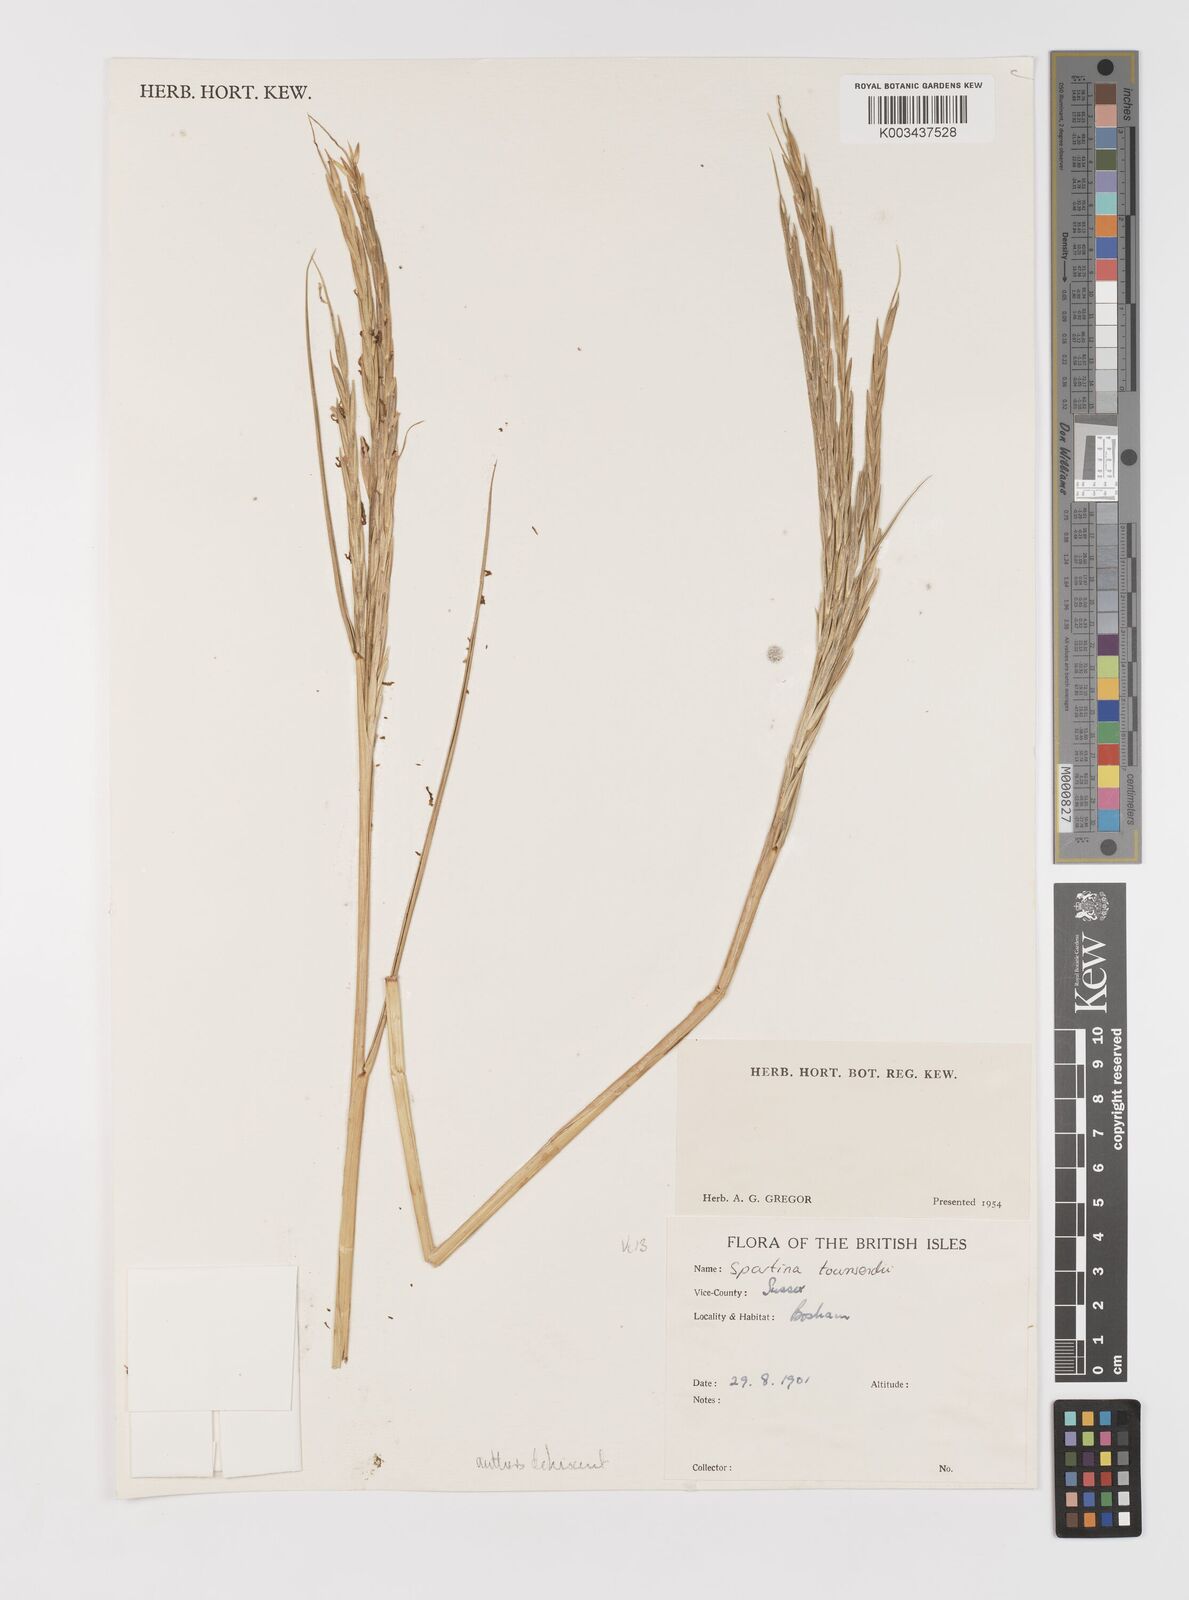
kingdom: Plantae
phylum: Tracheophyta
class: Liliopsida
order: Poales
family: Poaceae
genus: Sporobolus
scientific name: Sporobolus anglicus
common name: English cordgrass
